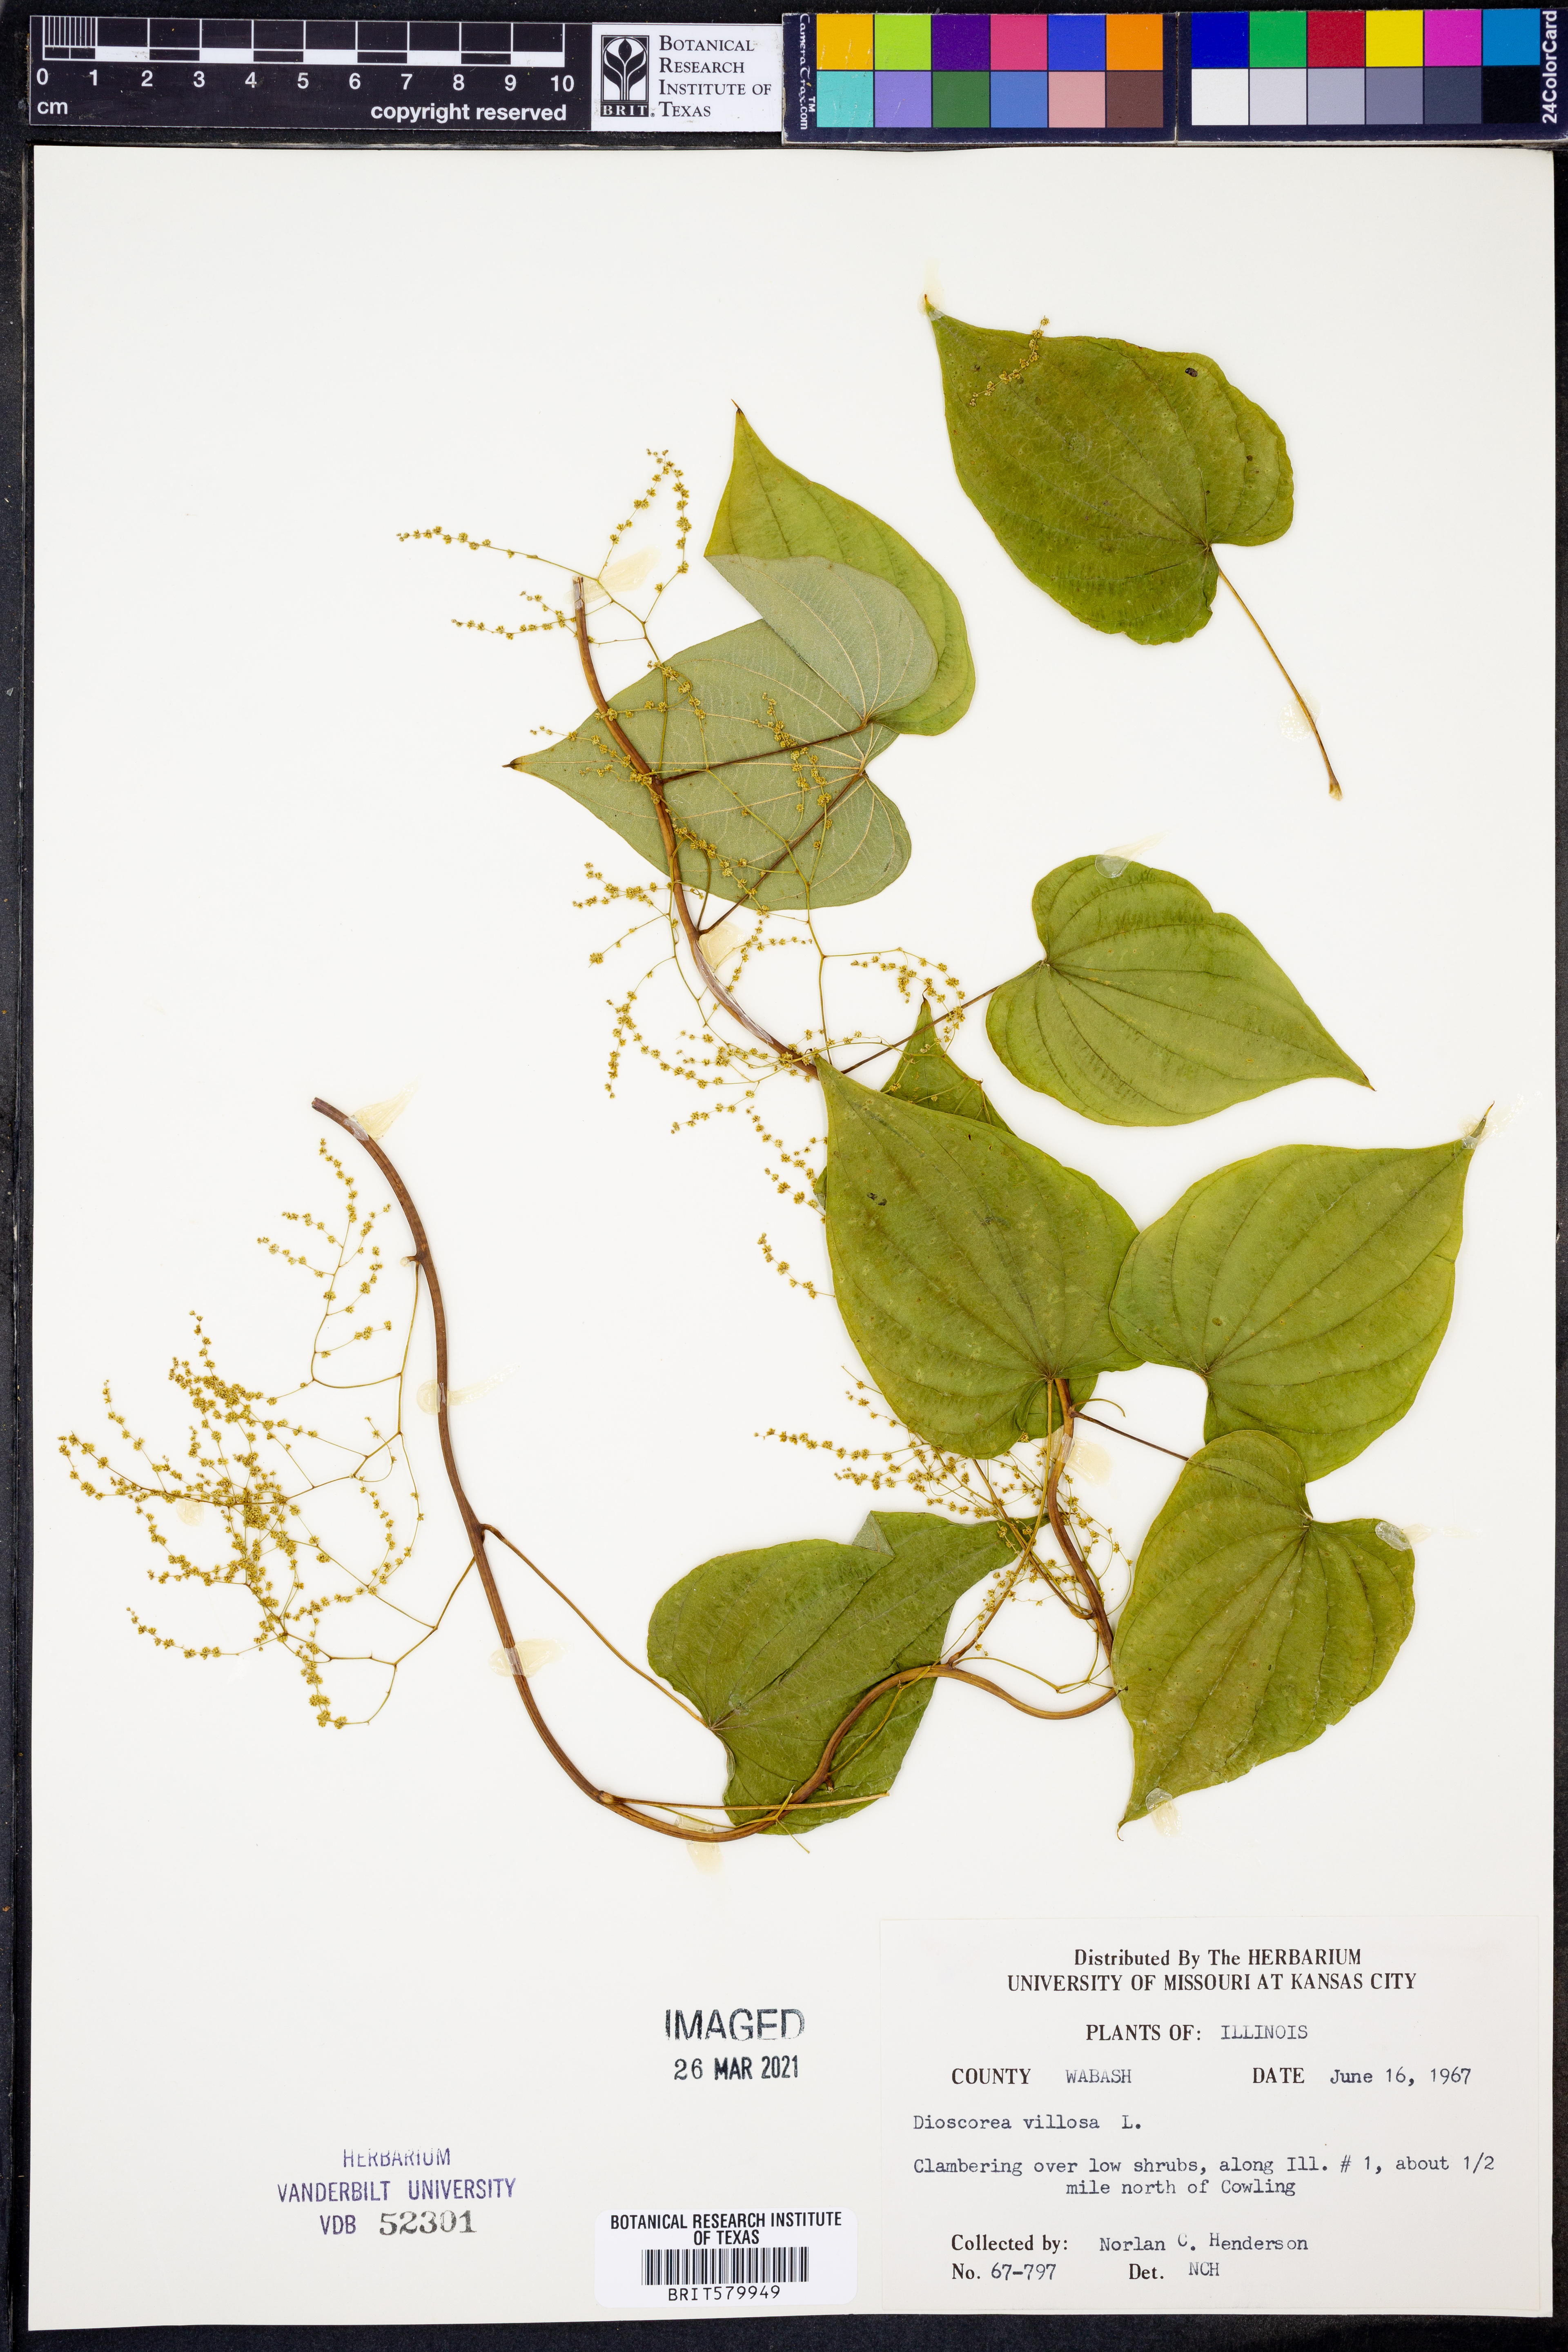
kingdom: Plantae
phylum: Tracheophyta
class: Liliopsida
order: Dioscoreales
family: Dioscoreaceae
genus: Dioscorea
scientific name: Dioscorea villosa
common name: Wild yam
